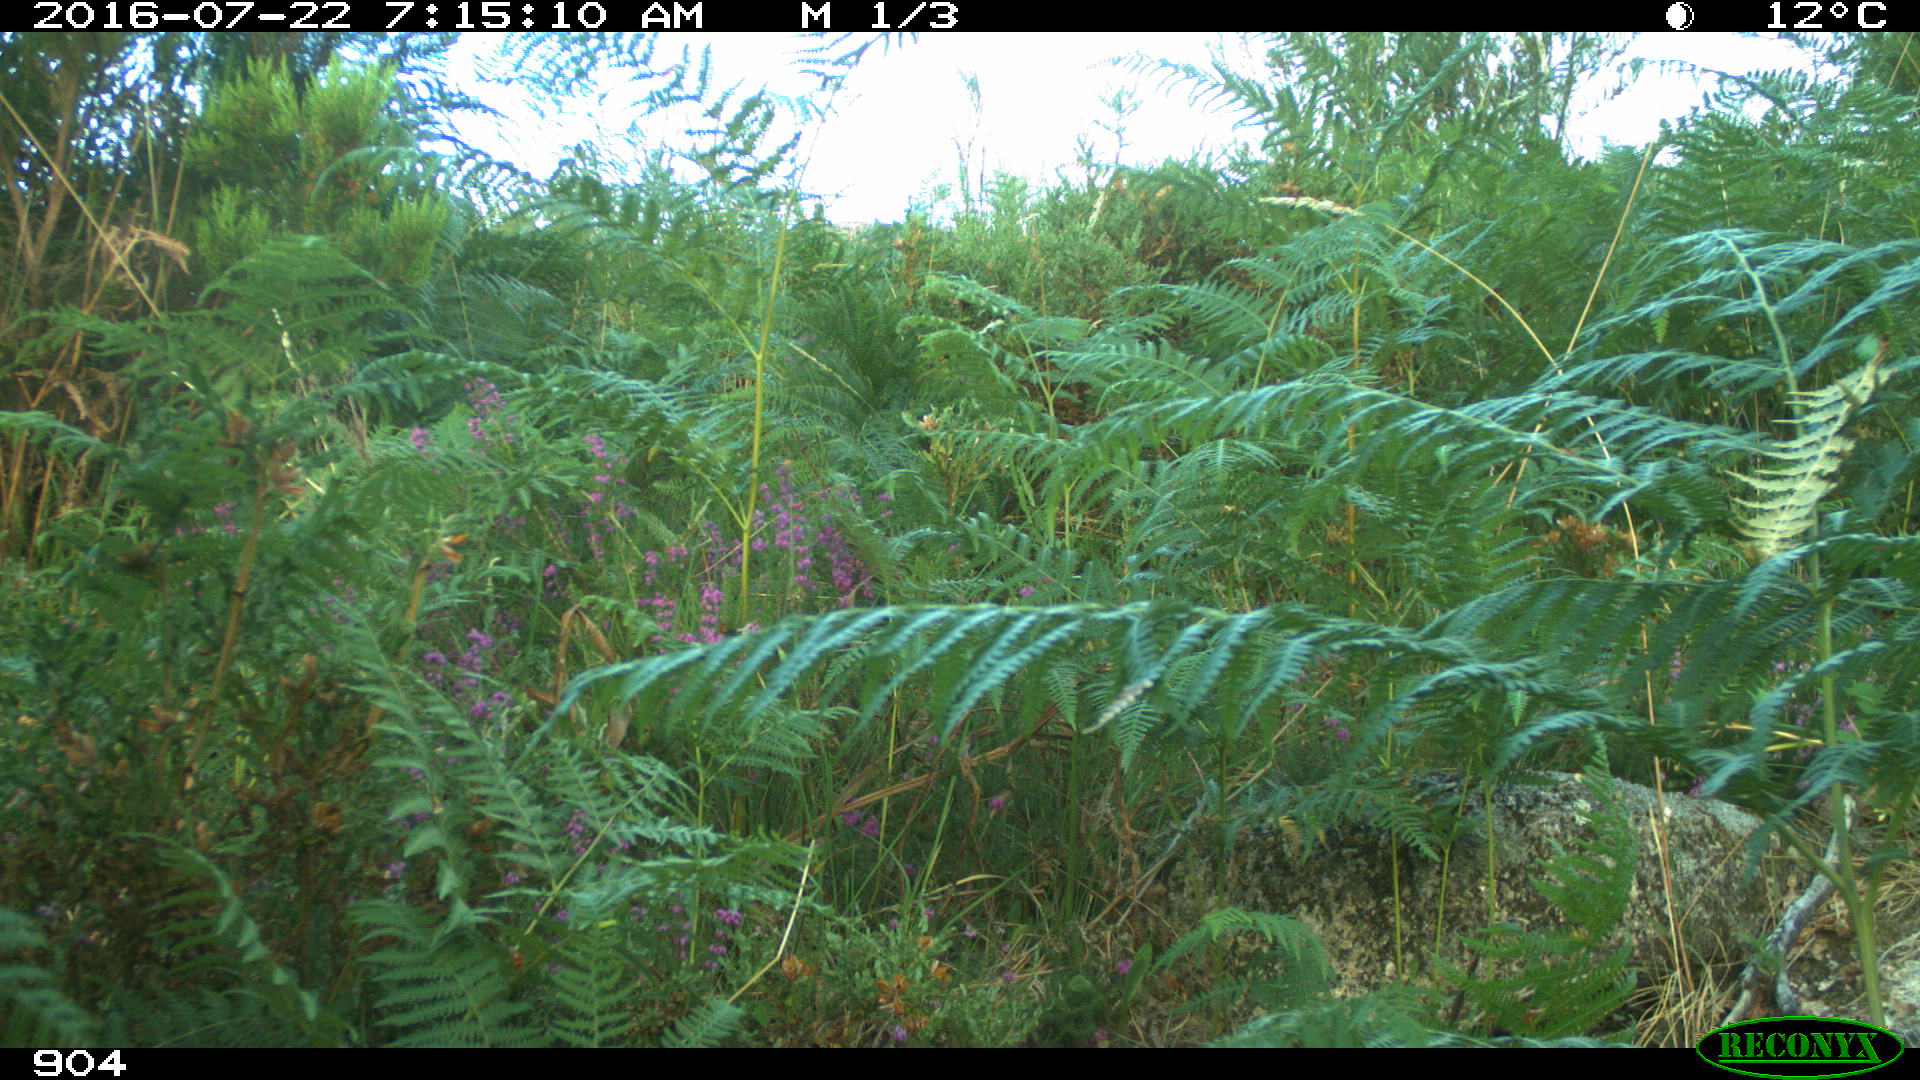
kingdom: Animalia
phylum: Chordata
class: Mammalia
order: Artiodactyla
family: Bovidae
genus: Bos
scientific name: Bos taurus
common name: Domesticated cattle
